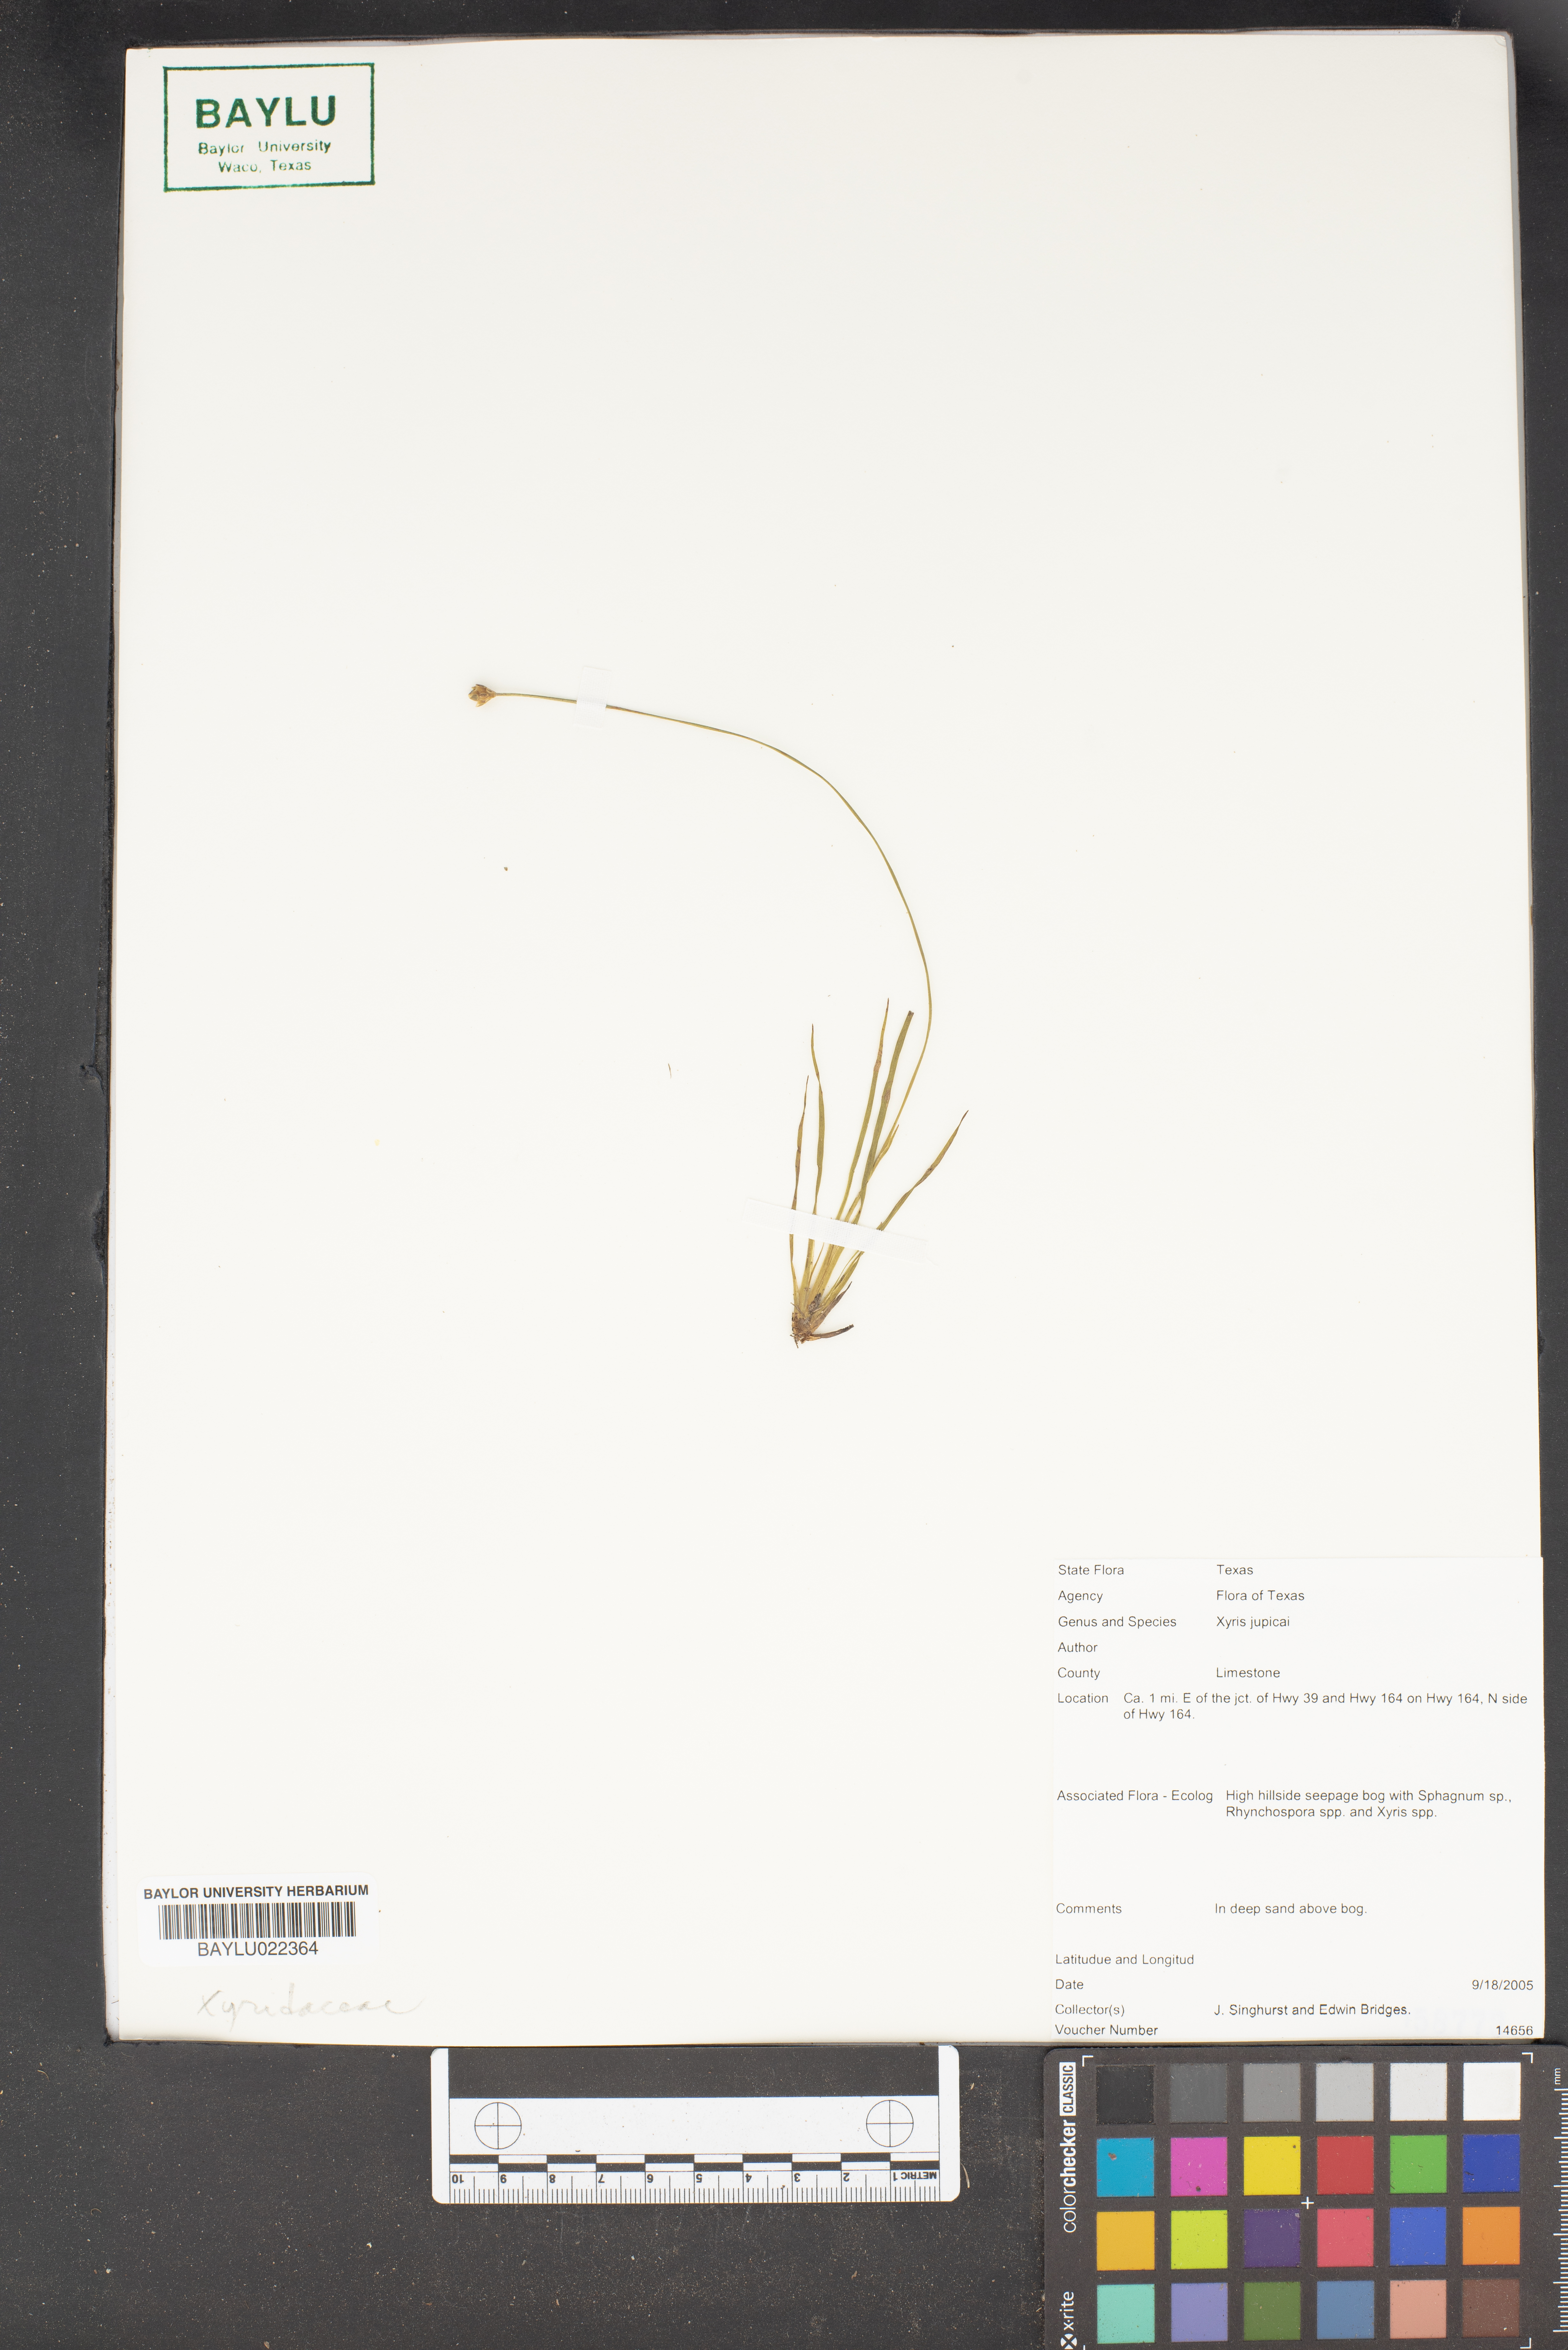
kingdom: Plantae
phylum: Tracheophyta
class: Liliopsida
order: Poales
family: Xyridaceae
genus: Xyris
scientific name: Xyris jupicai
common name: Richard's yelloweyed grass
